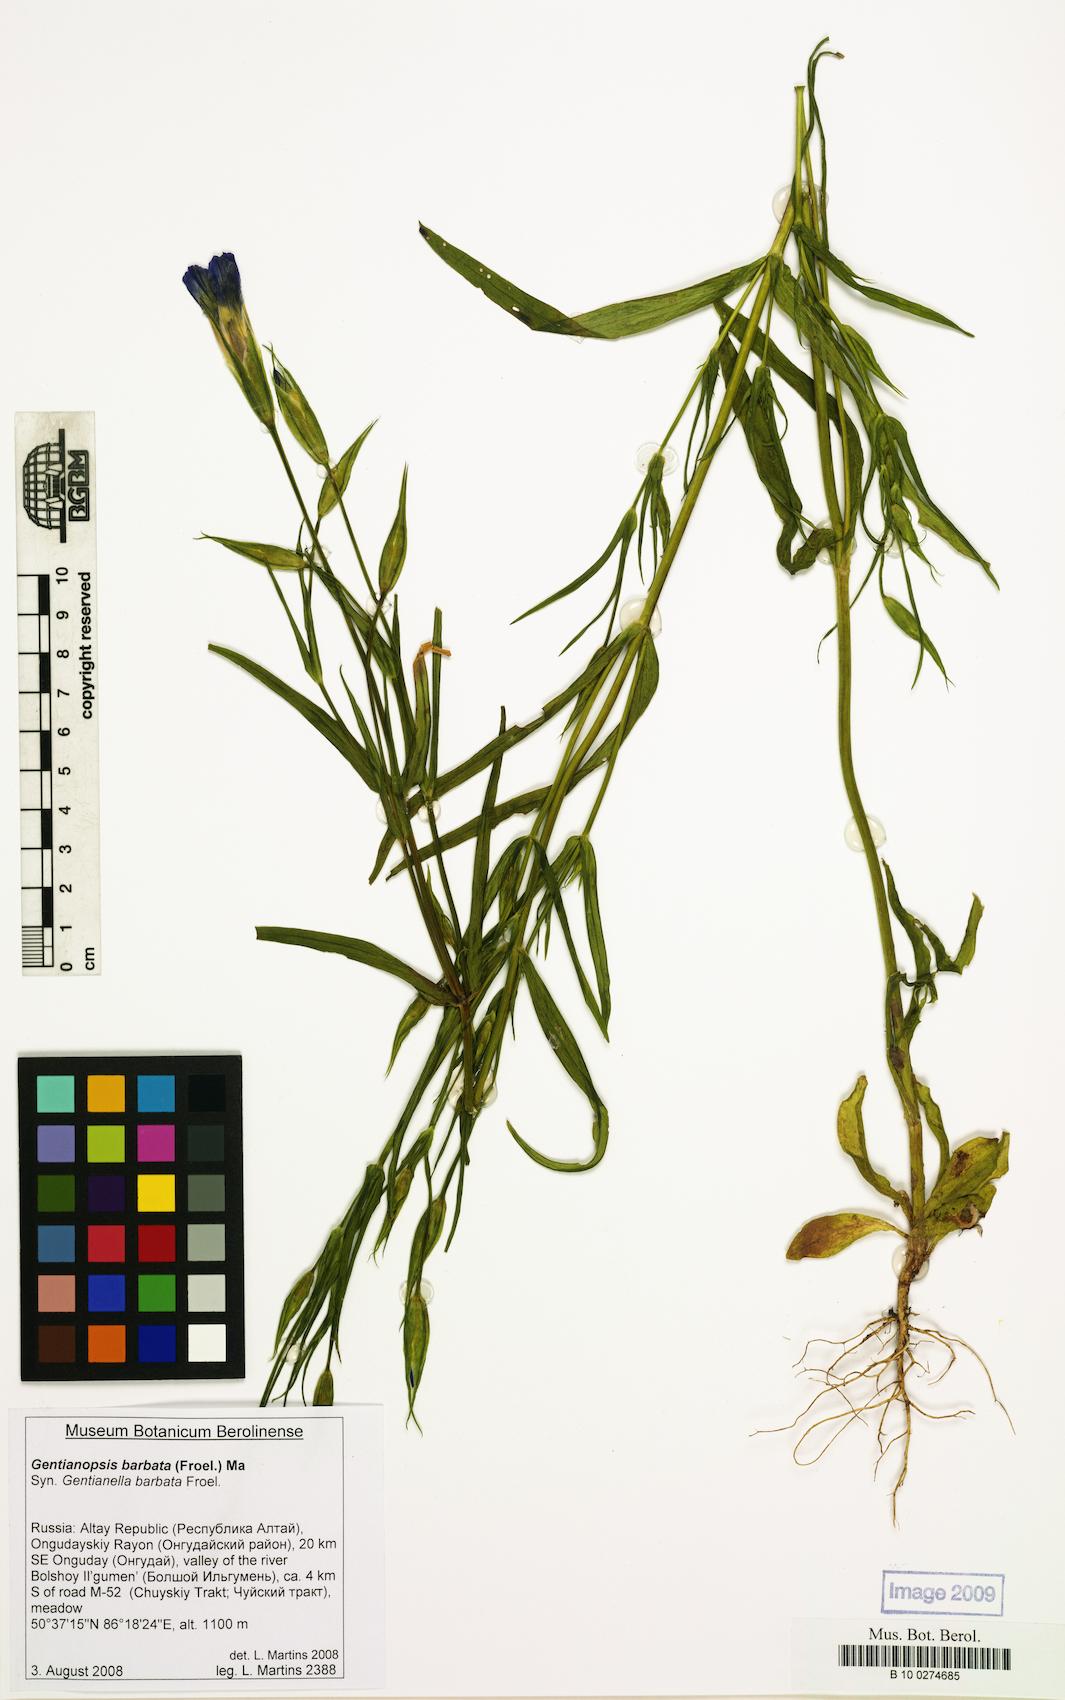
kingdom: Plantae
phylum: Tracheophyta
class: Magnoliopsida
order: Gentianales
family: Gentianaceae
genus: Gentianopsis
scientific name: Gentianopsis barbata
